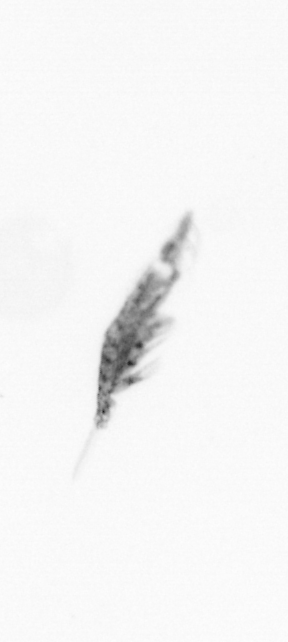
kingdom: Animalia
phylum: Arthropoda
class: Copepoda
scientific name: Copepoda
